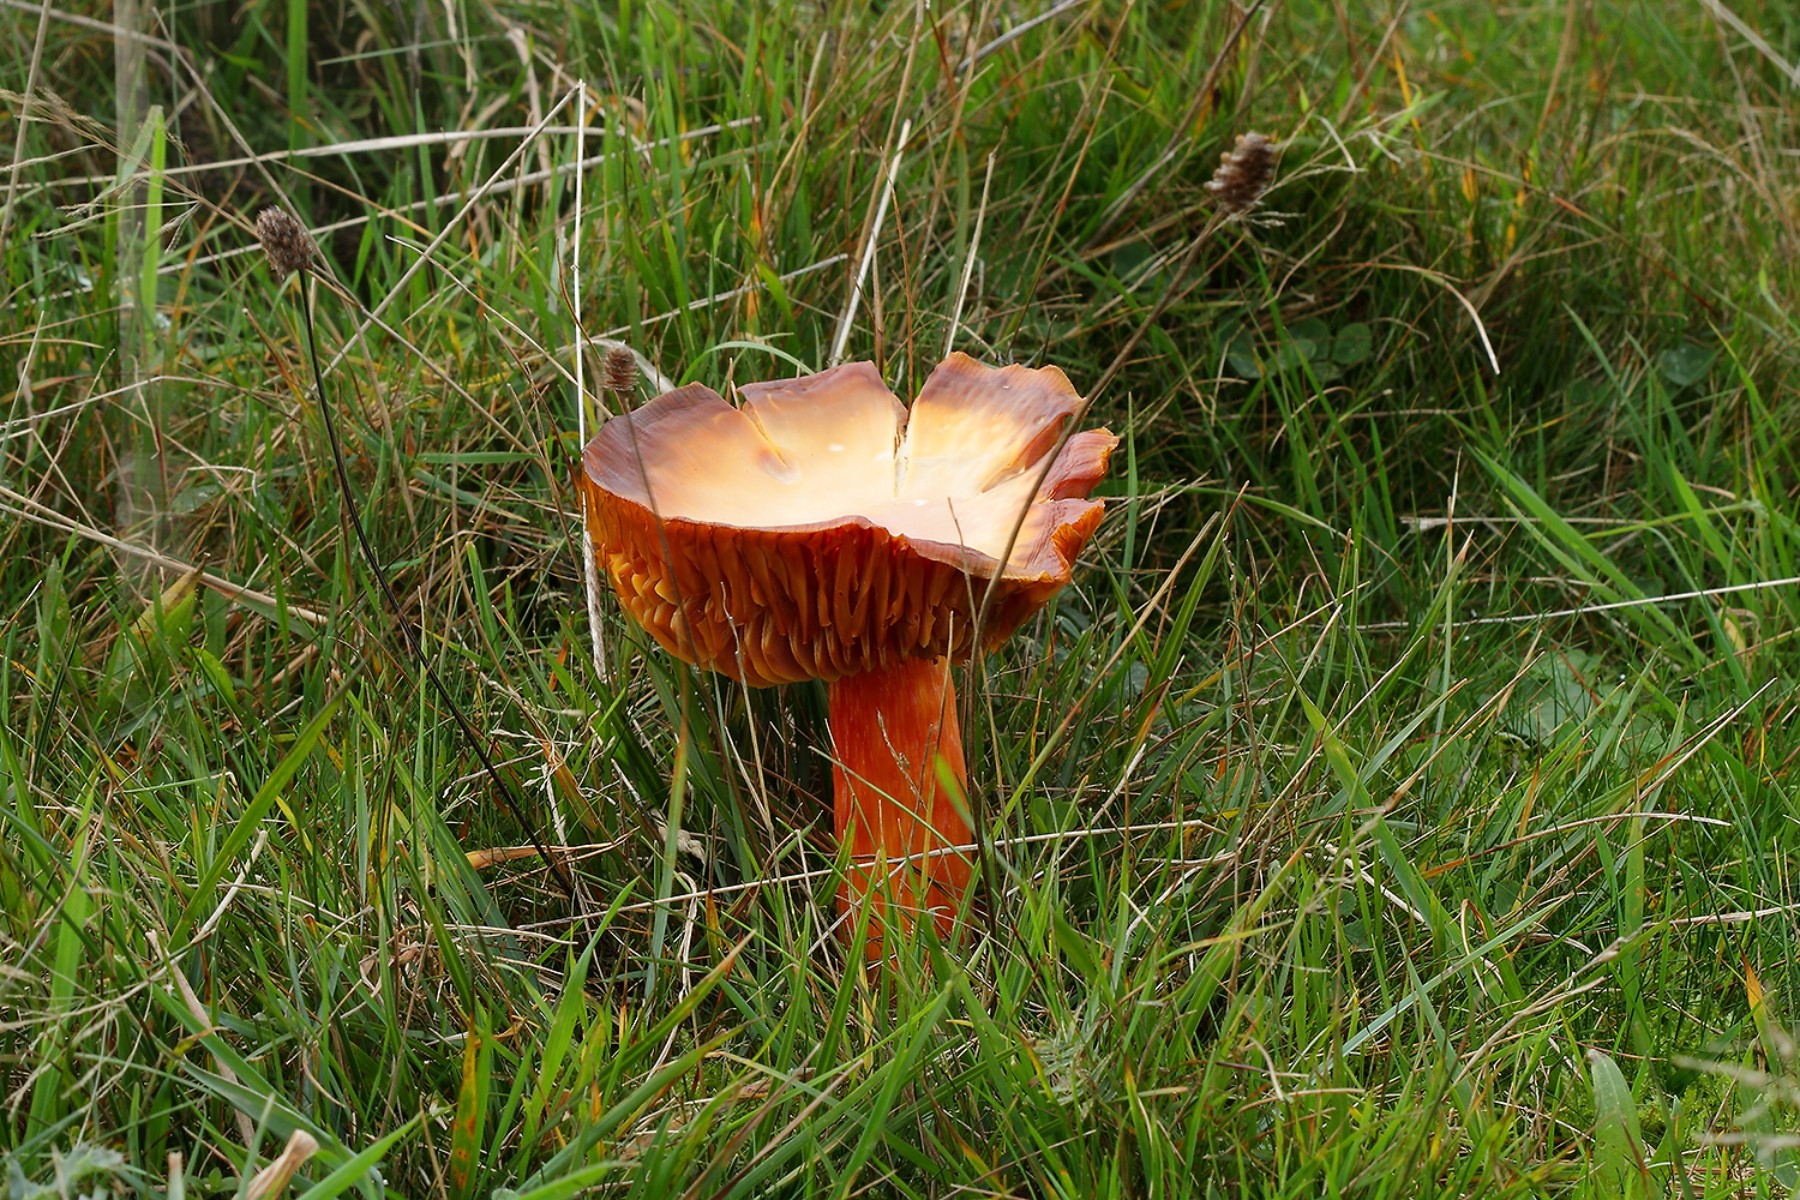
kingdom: Fungi
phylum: Basidiomycota
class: Agaricomycetes
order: Agaricales
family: Hygrophoraceae
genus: Hygrocybe
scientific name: Hygrocybe punicea
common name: skarlagen-vokshat
